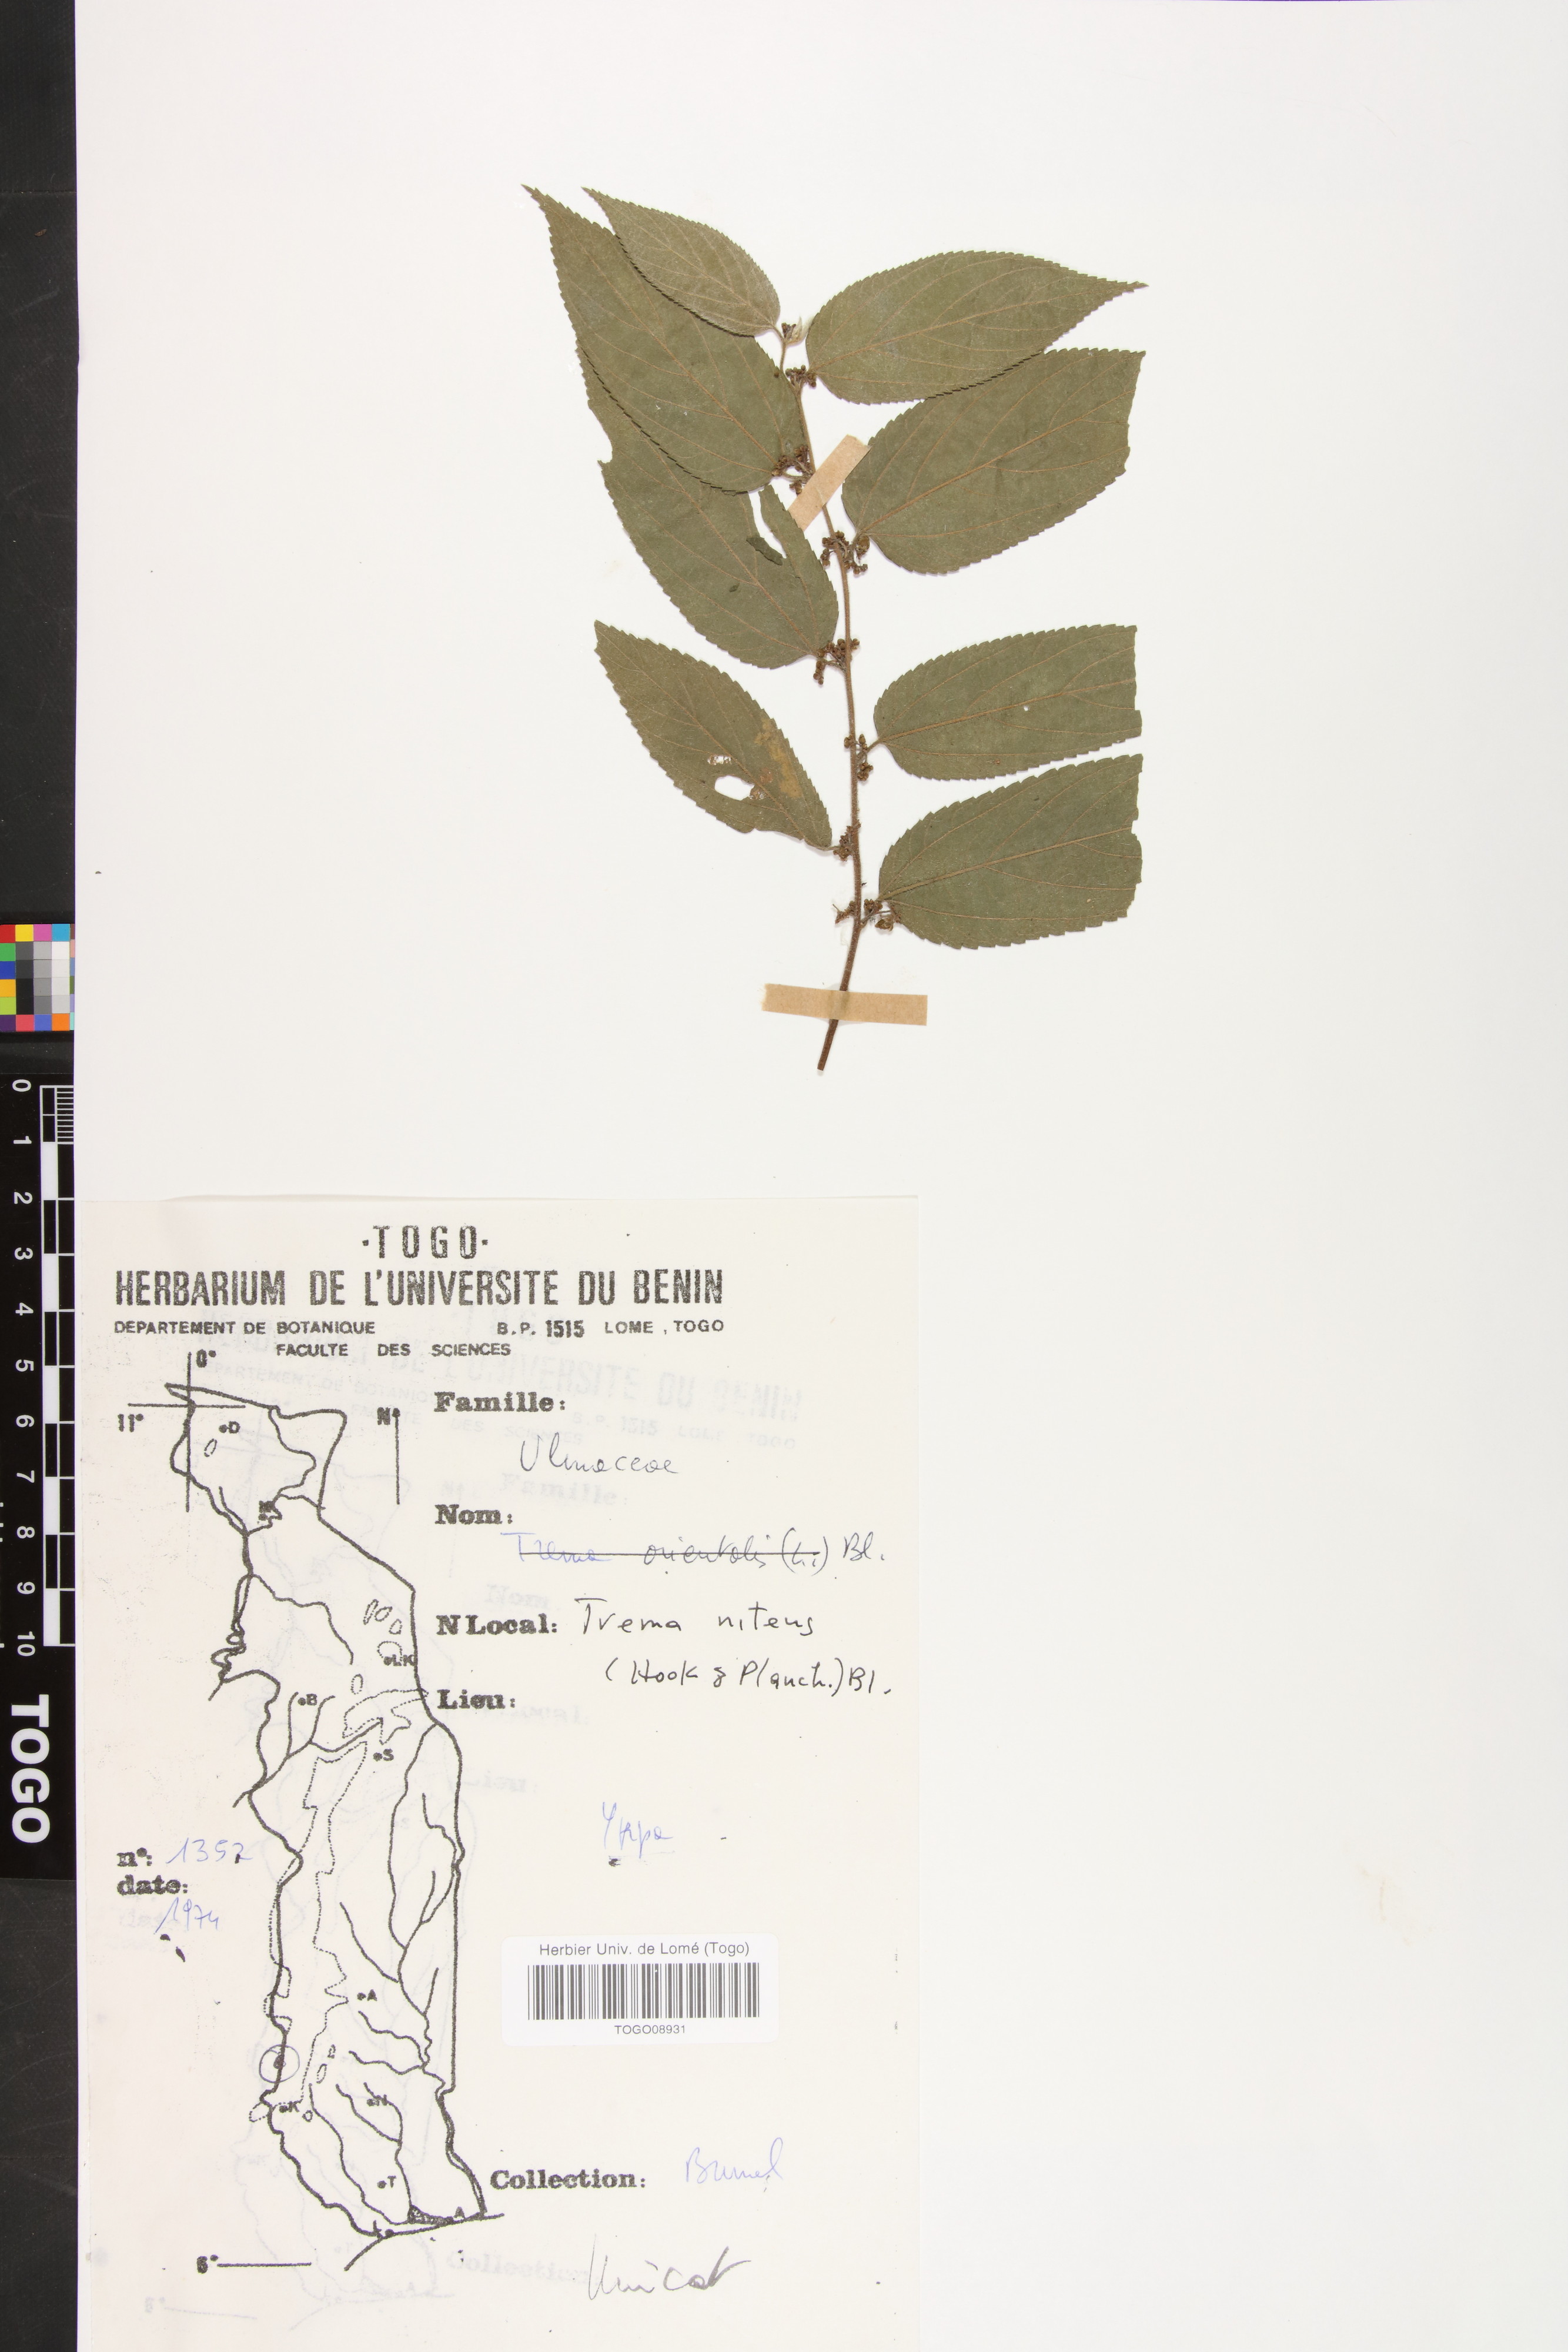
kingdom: Plantae
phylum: Tracheophyta
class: Magnoliopsida
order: Rosales
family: Cannabaceae
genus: Trema
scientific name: Trema orientale
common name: Indian charcoal tree
